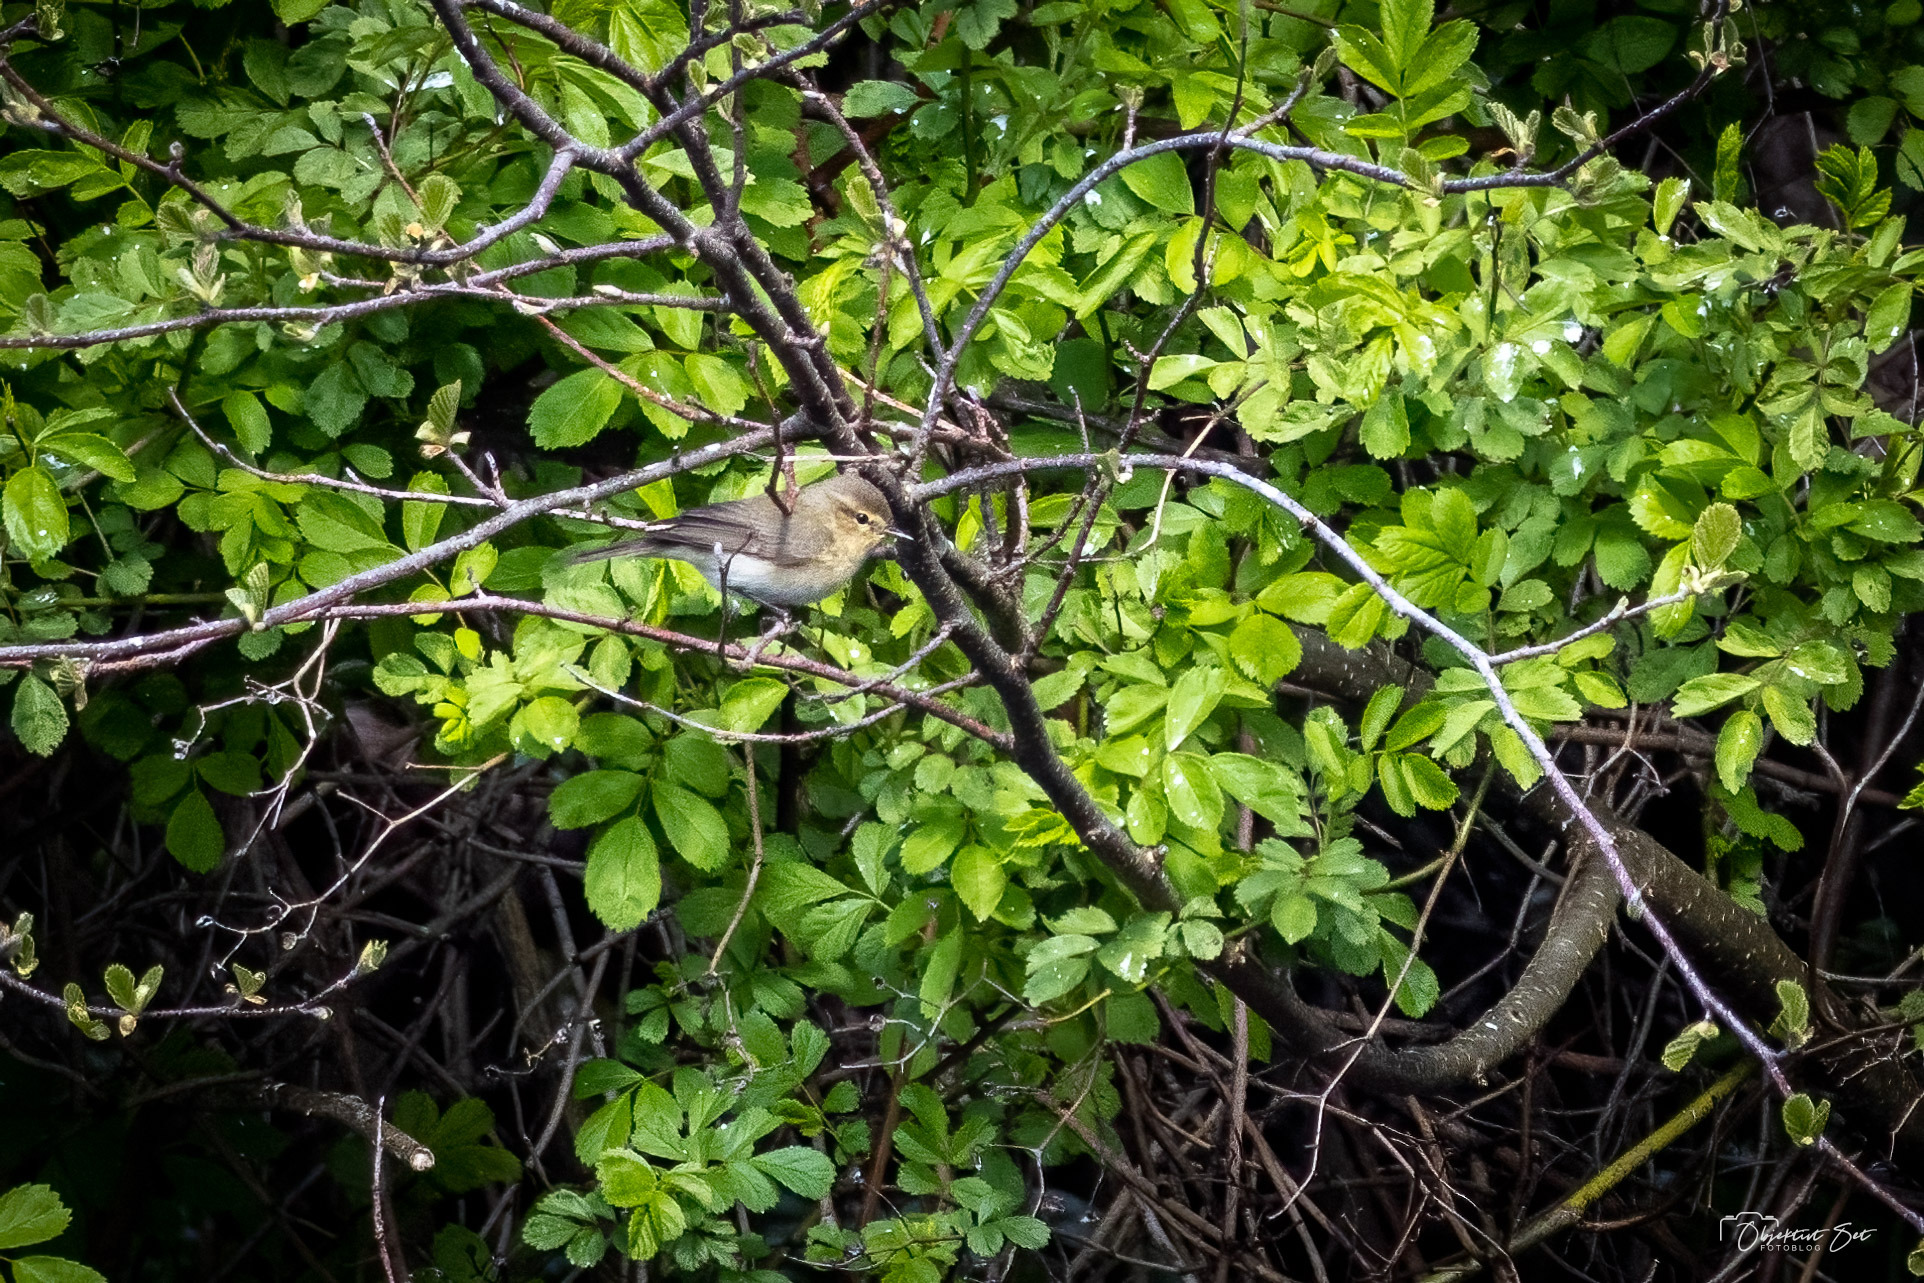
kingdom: Animalia
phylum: Chordata
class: Aves
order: Passeriformes
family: Phylloscopidae
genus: Phylloscopus
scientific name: Phylloscopus collybita
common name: Gransanger
